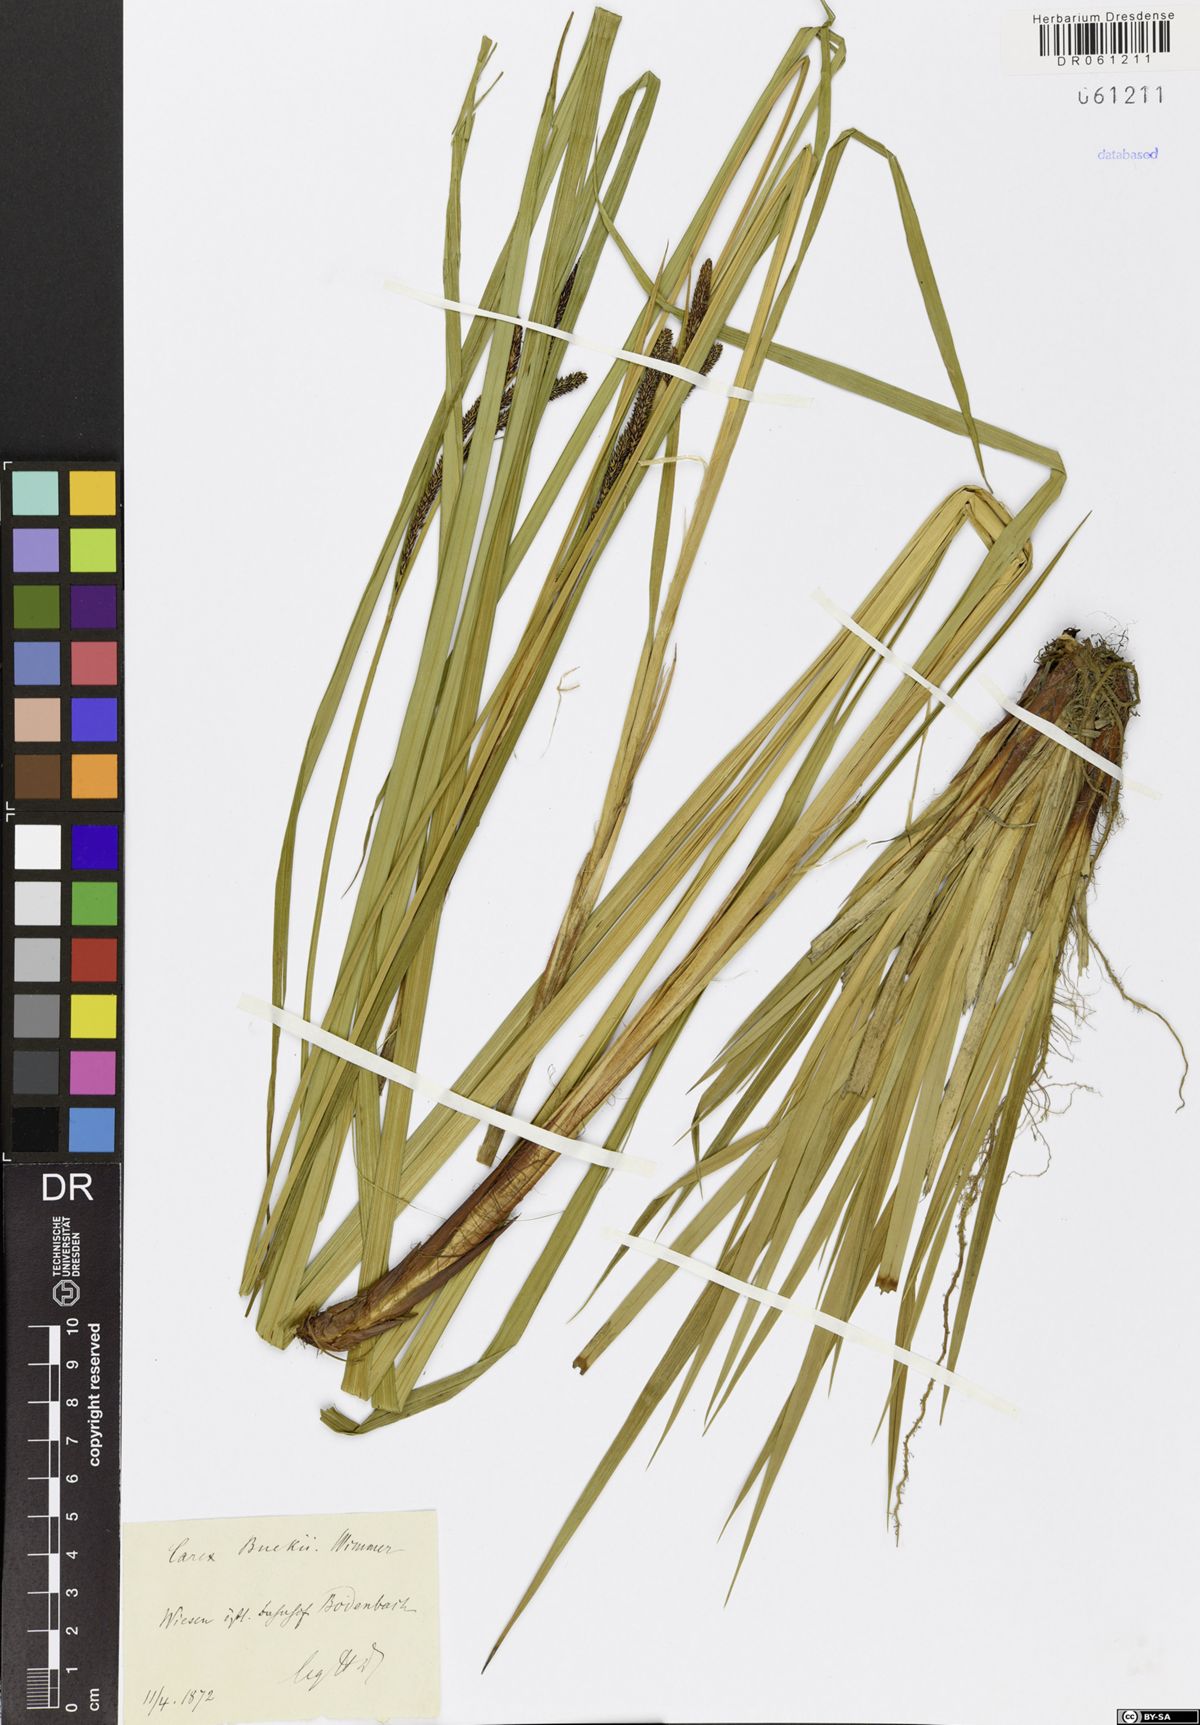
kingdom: Plantae
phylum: Tracheophyta
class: Liliopsida
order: Poales
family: Cyperaceae
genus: Carex
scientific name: Carex buekii
